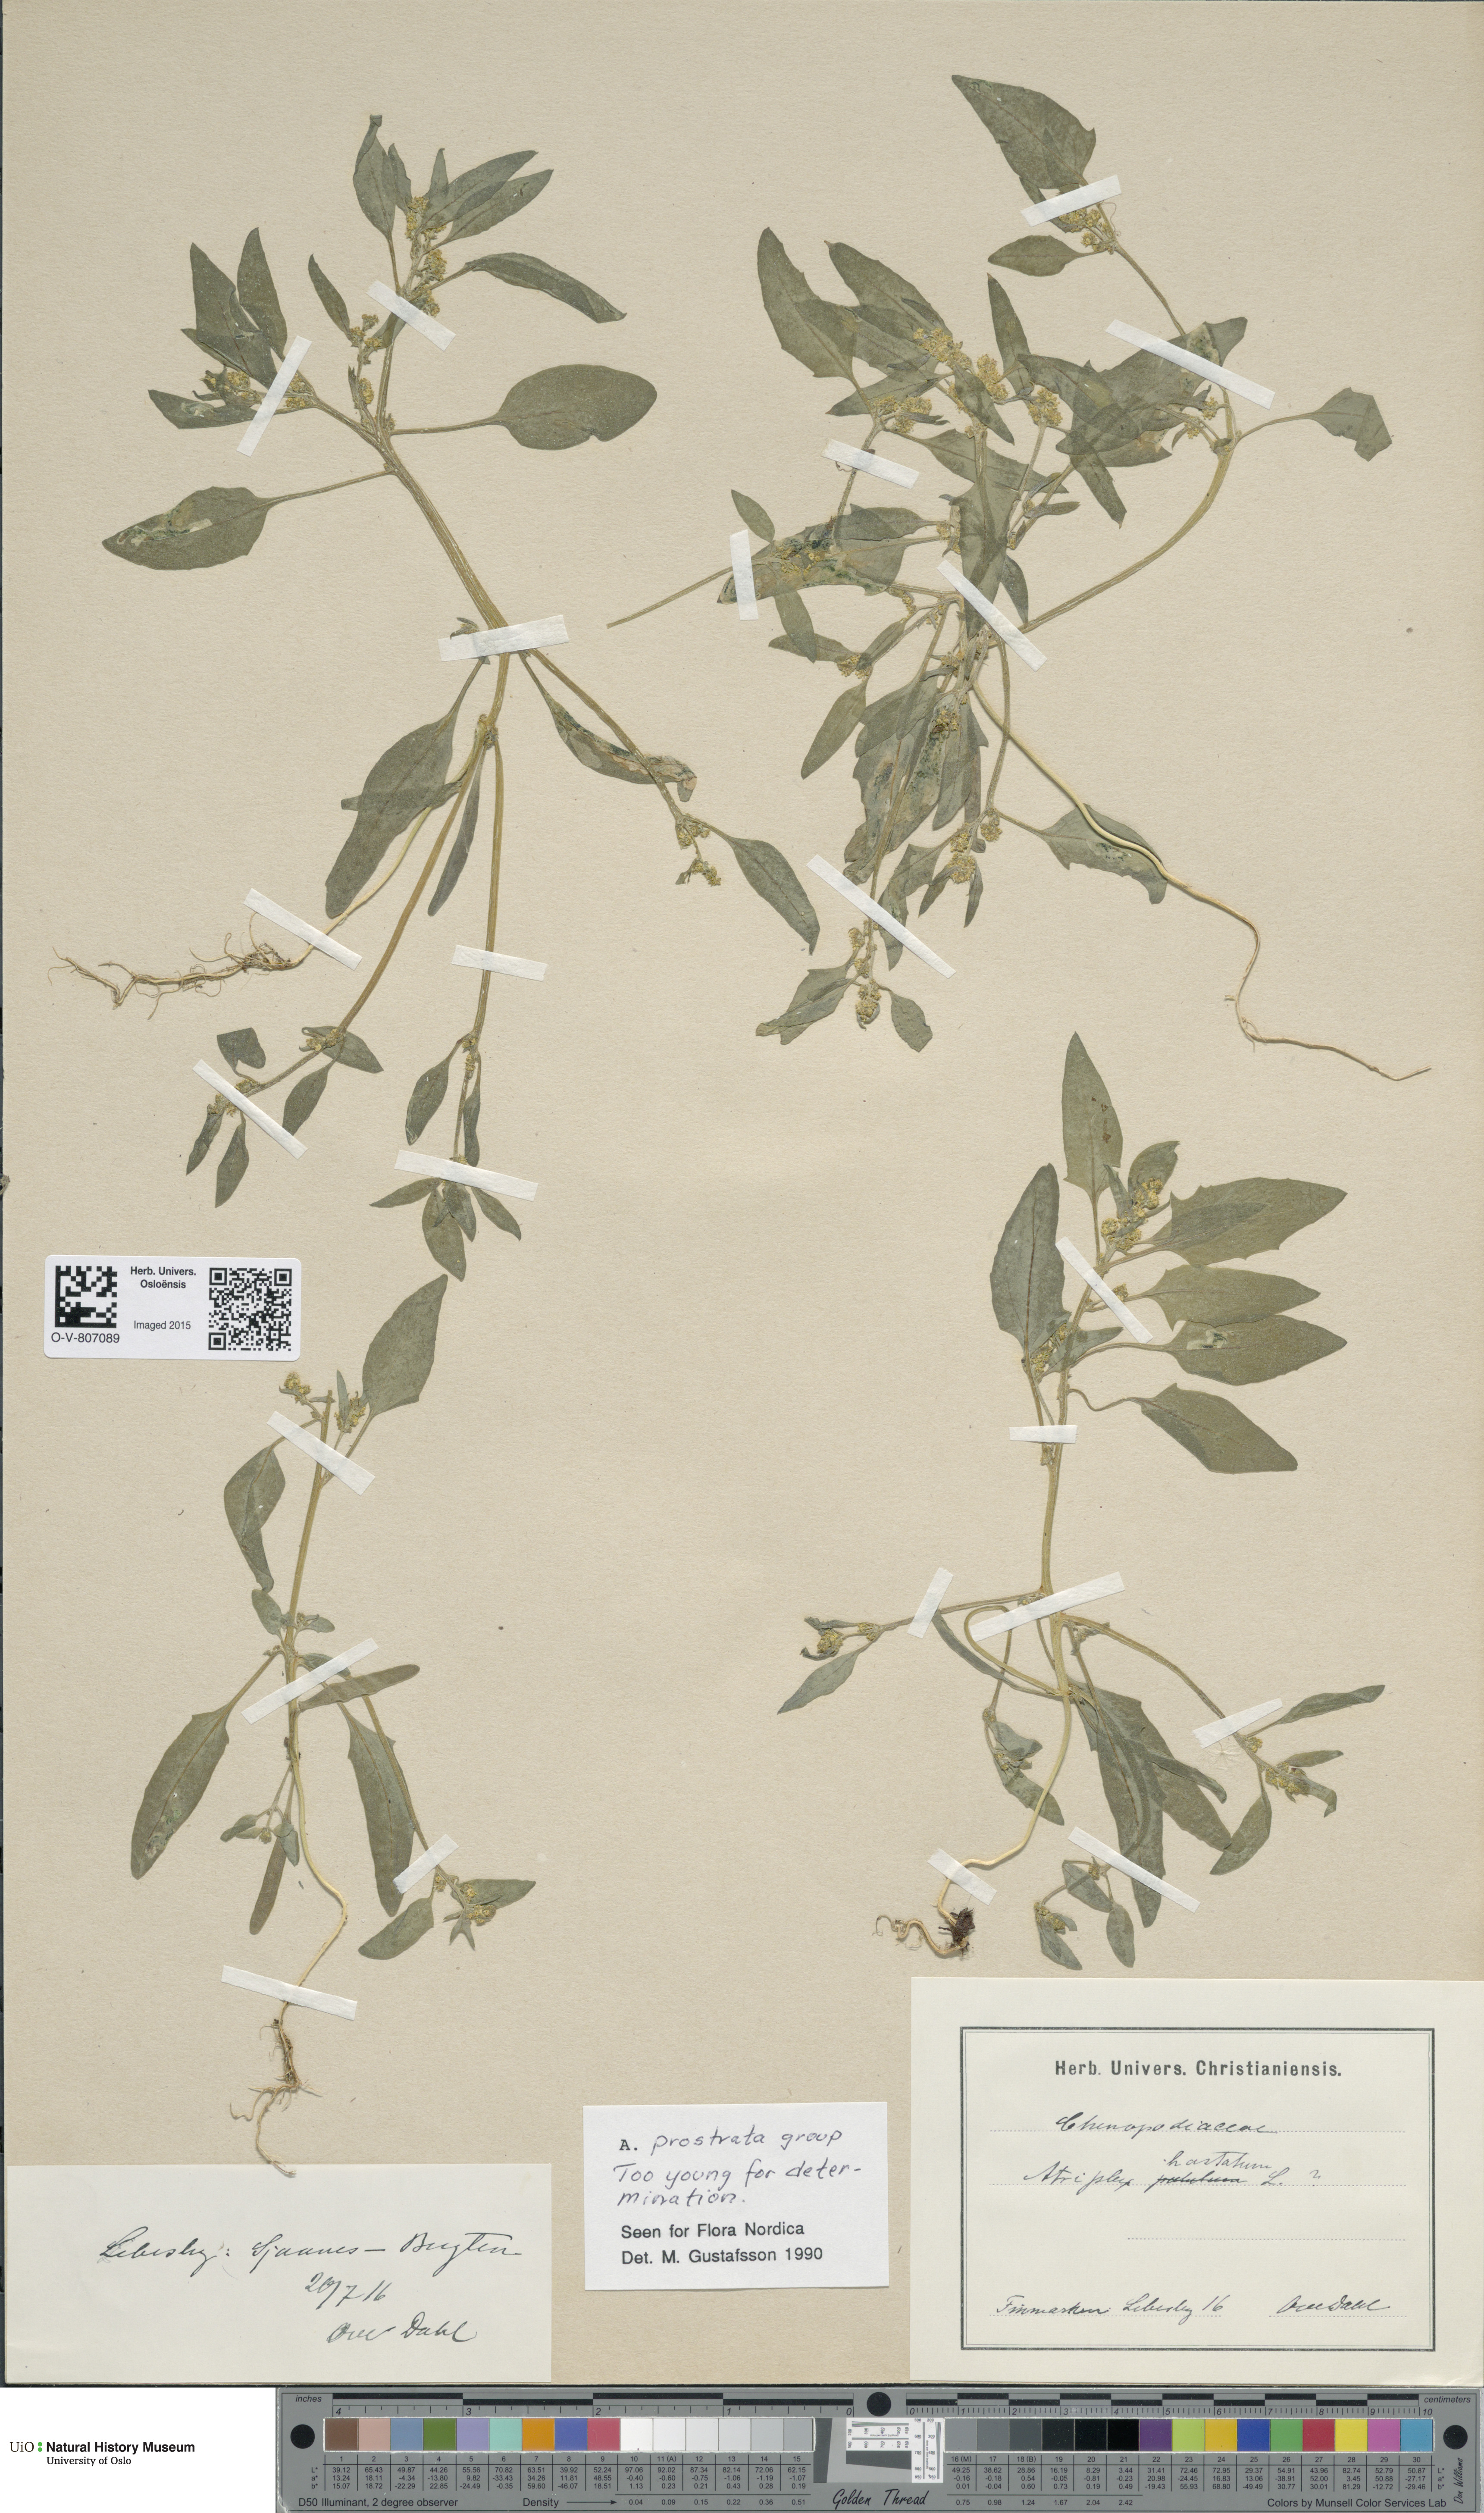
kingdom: Plantae
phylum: Tracheophyta
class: Magnoliopsida
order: Caryophyllales
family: Amaranthaceae
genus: Atriplex
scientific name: Atriplex prostrata
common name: Spear-leaved orache
